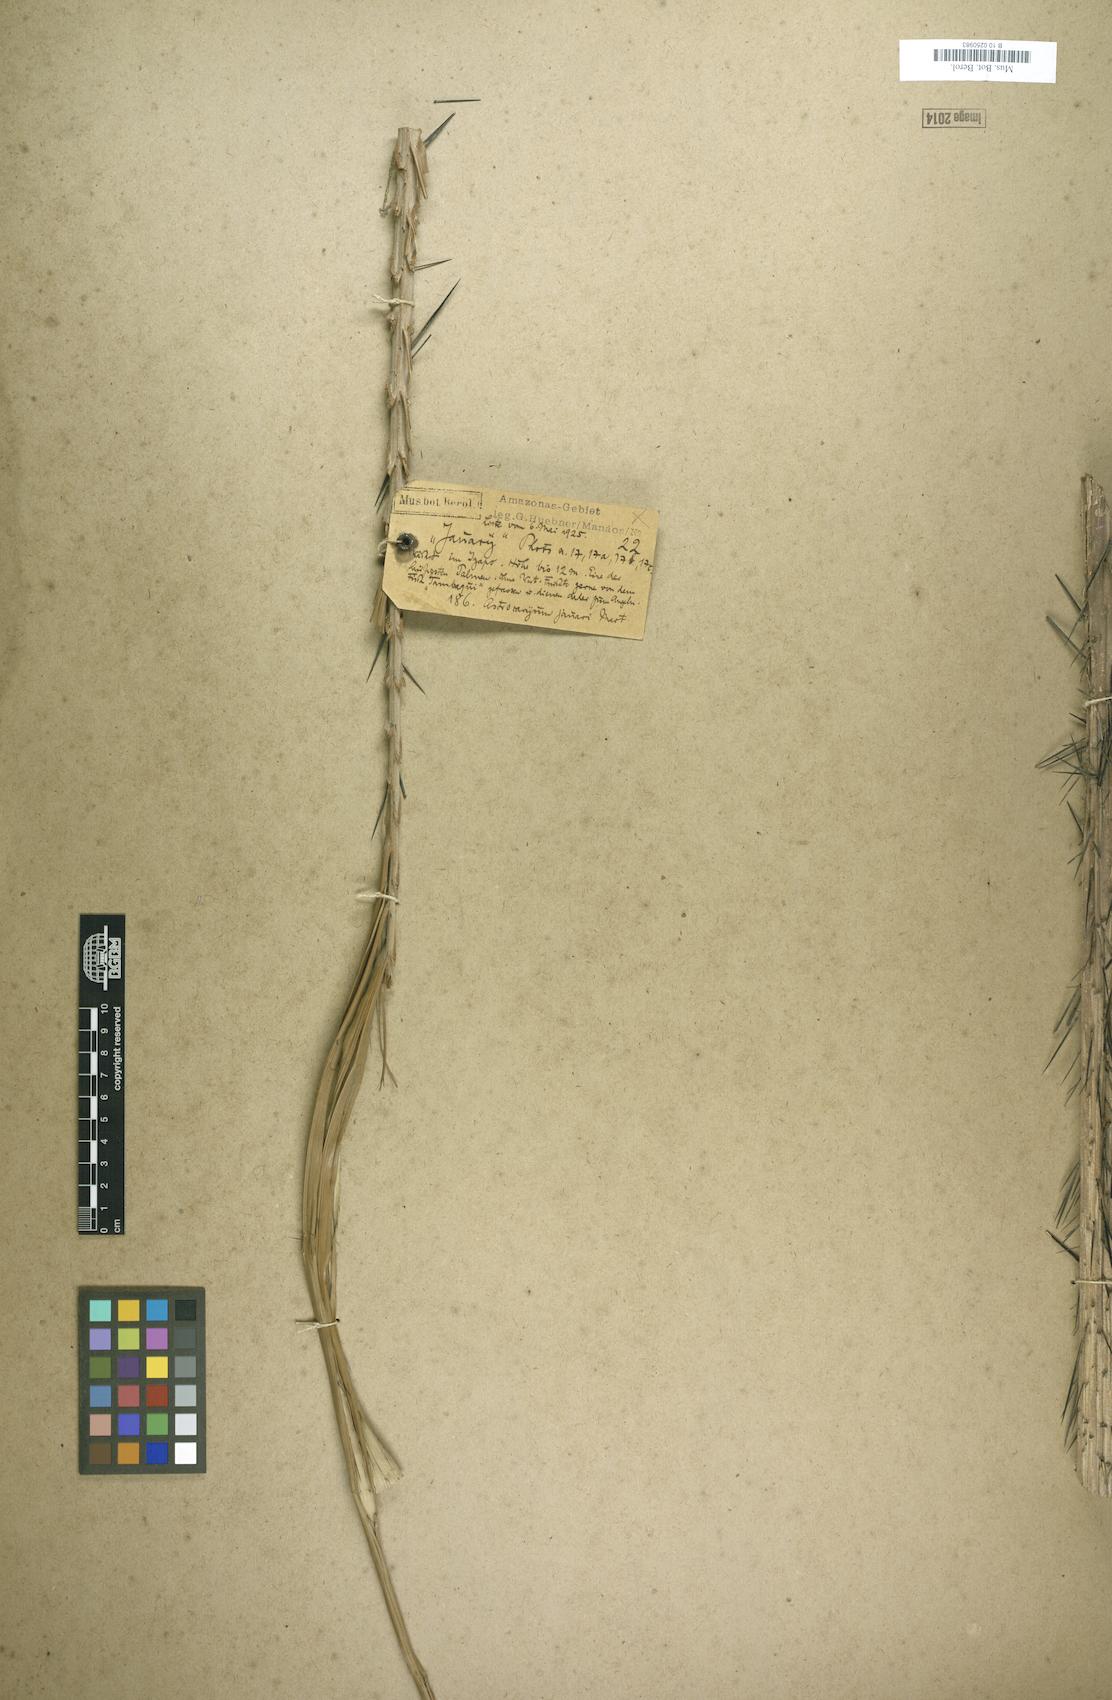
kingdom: Plantae
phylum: Tracheophyta
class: Liliopsida
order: Arecales
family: Arecaceae
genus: Astrocaryum
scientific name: Astrocaryum jauari
